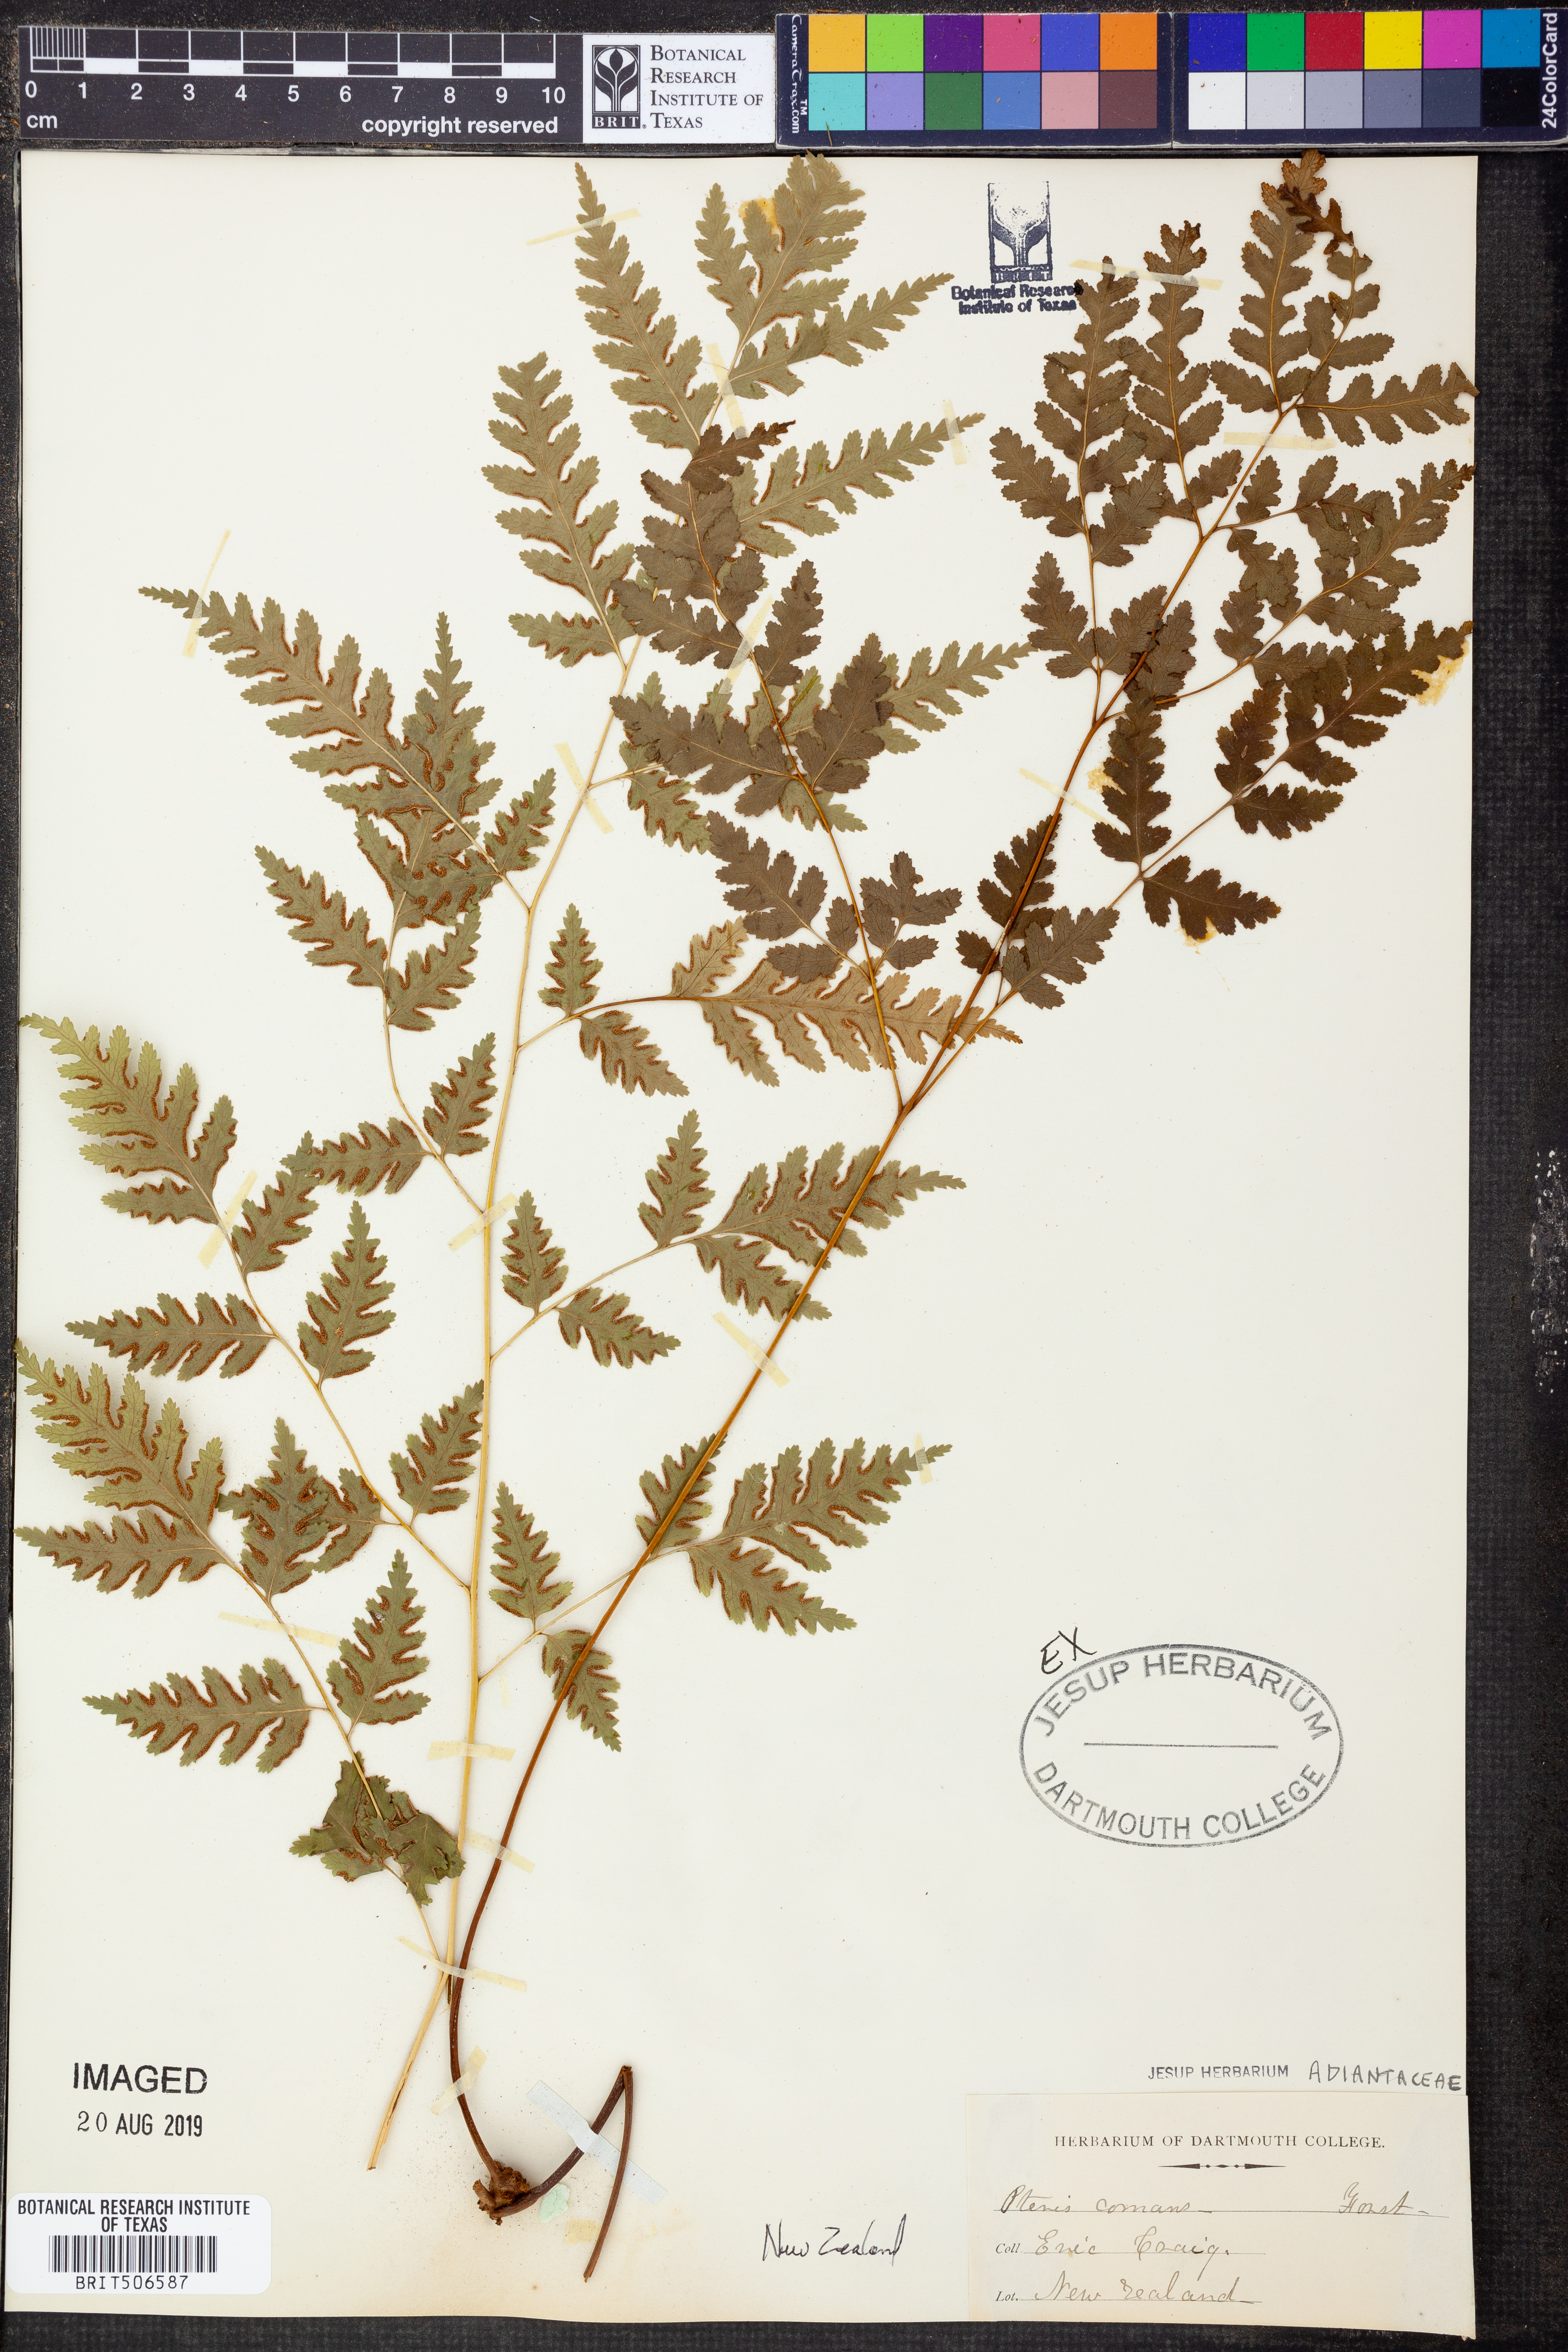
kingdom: Plantae
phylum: Tracheophyta
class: Polypodiopsida
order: Polypodiales
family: Pteridaceae
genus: Pteris
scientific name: Pteris comans
